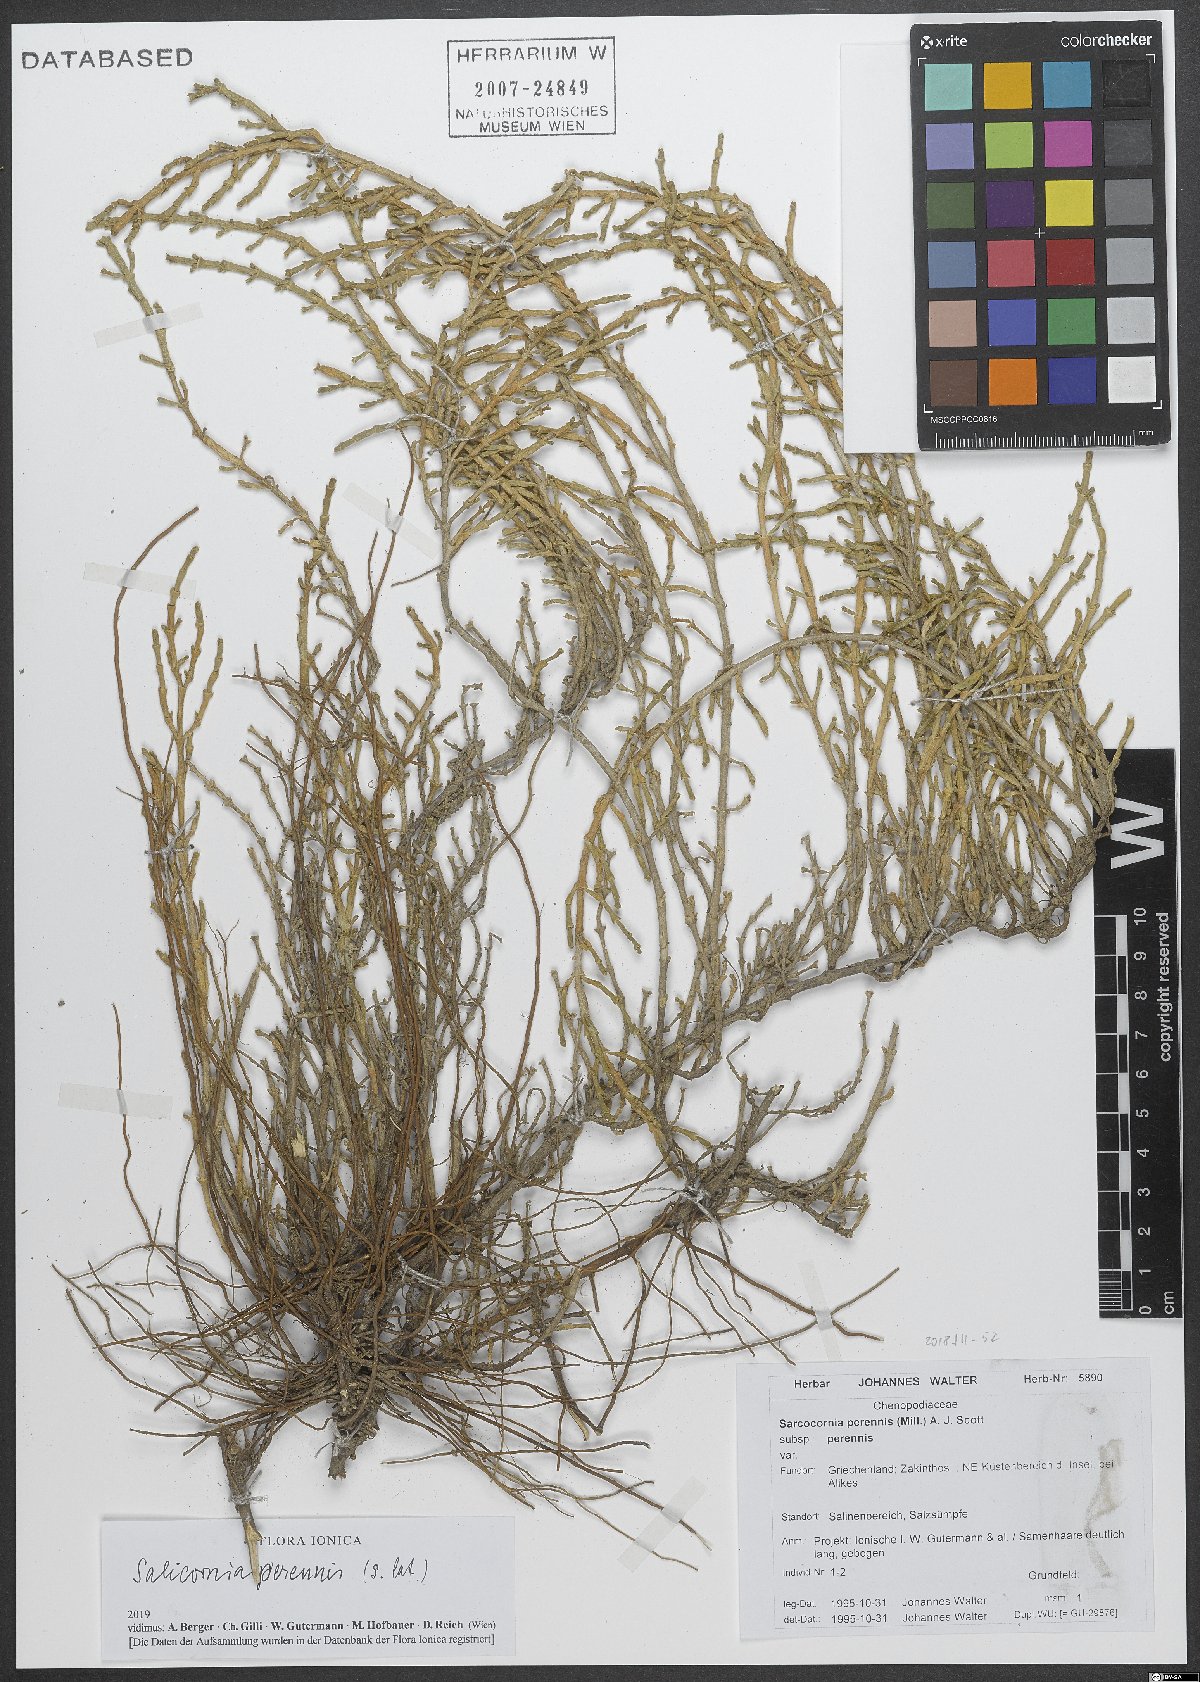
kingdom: Plantae
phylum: Tracheophyta
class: Magnoliopsida
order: Caryophyllales
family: Amaranthaceae
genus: Salicornia
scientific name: Salicornia perennis
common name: Chicken claws
